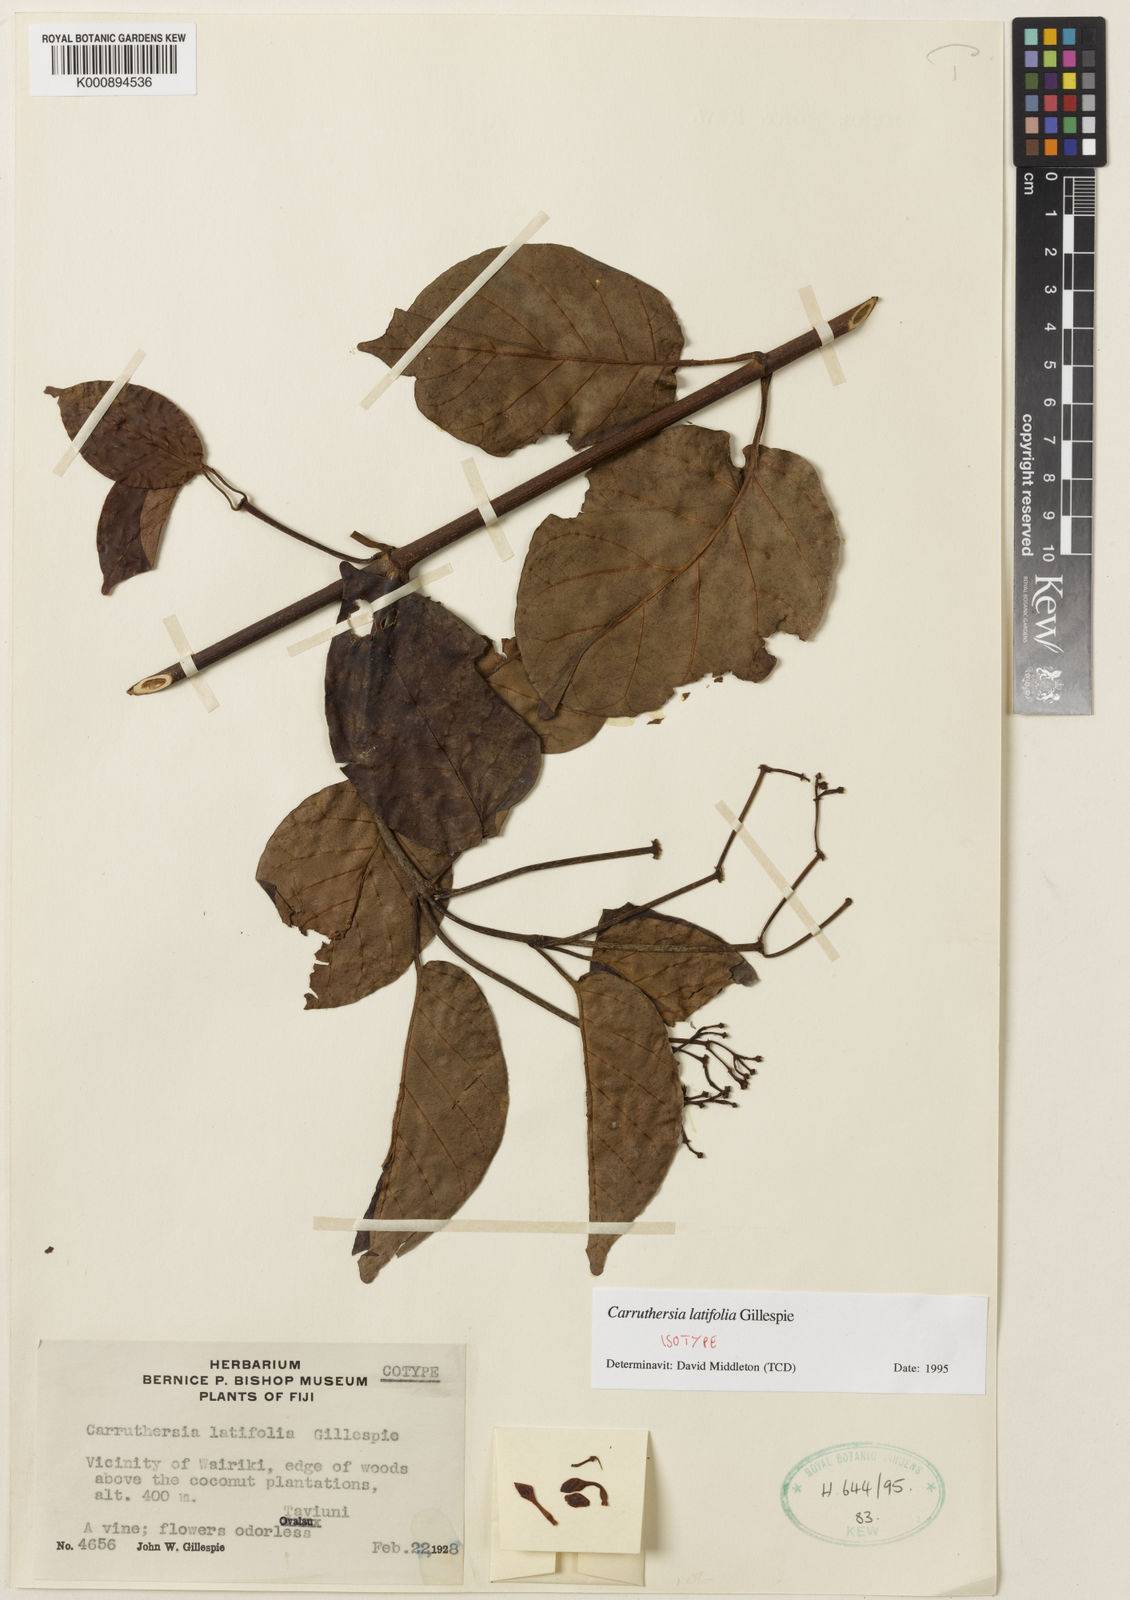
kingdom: Plantae
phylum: Tracheophyta
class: Magnoliopsida
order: Gentianales
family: Apocynaceae
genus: Carruthersia
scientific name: Carruthersia latifolia
